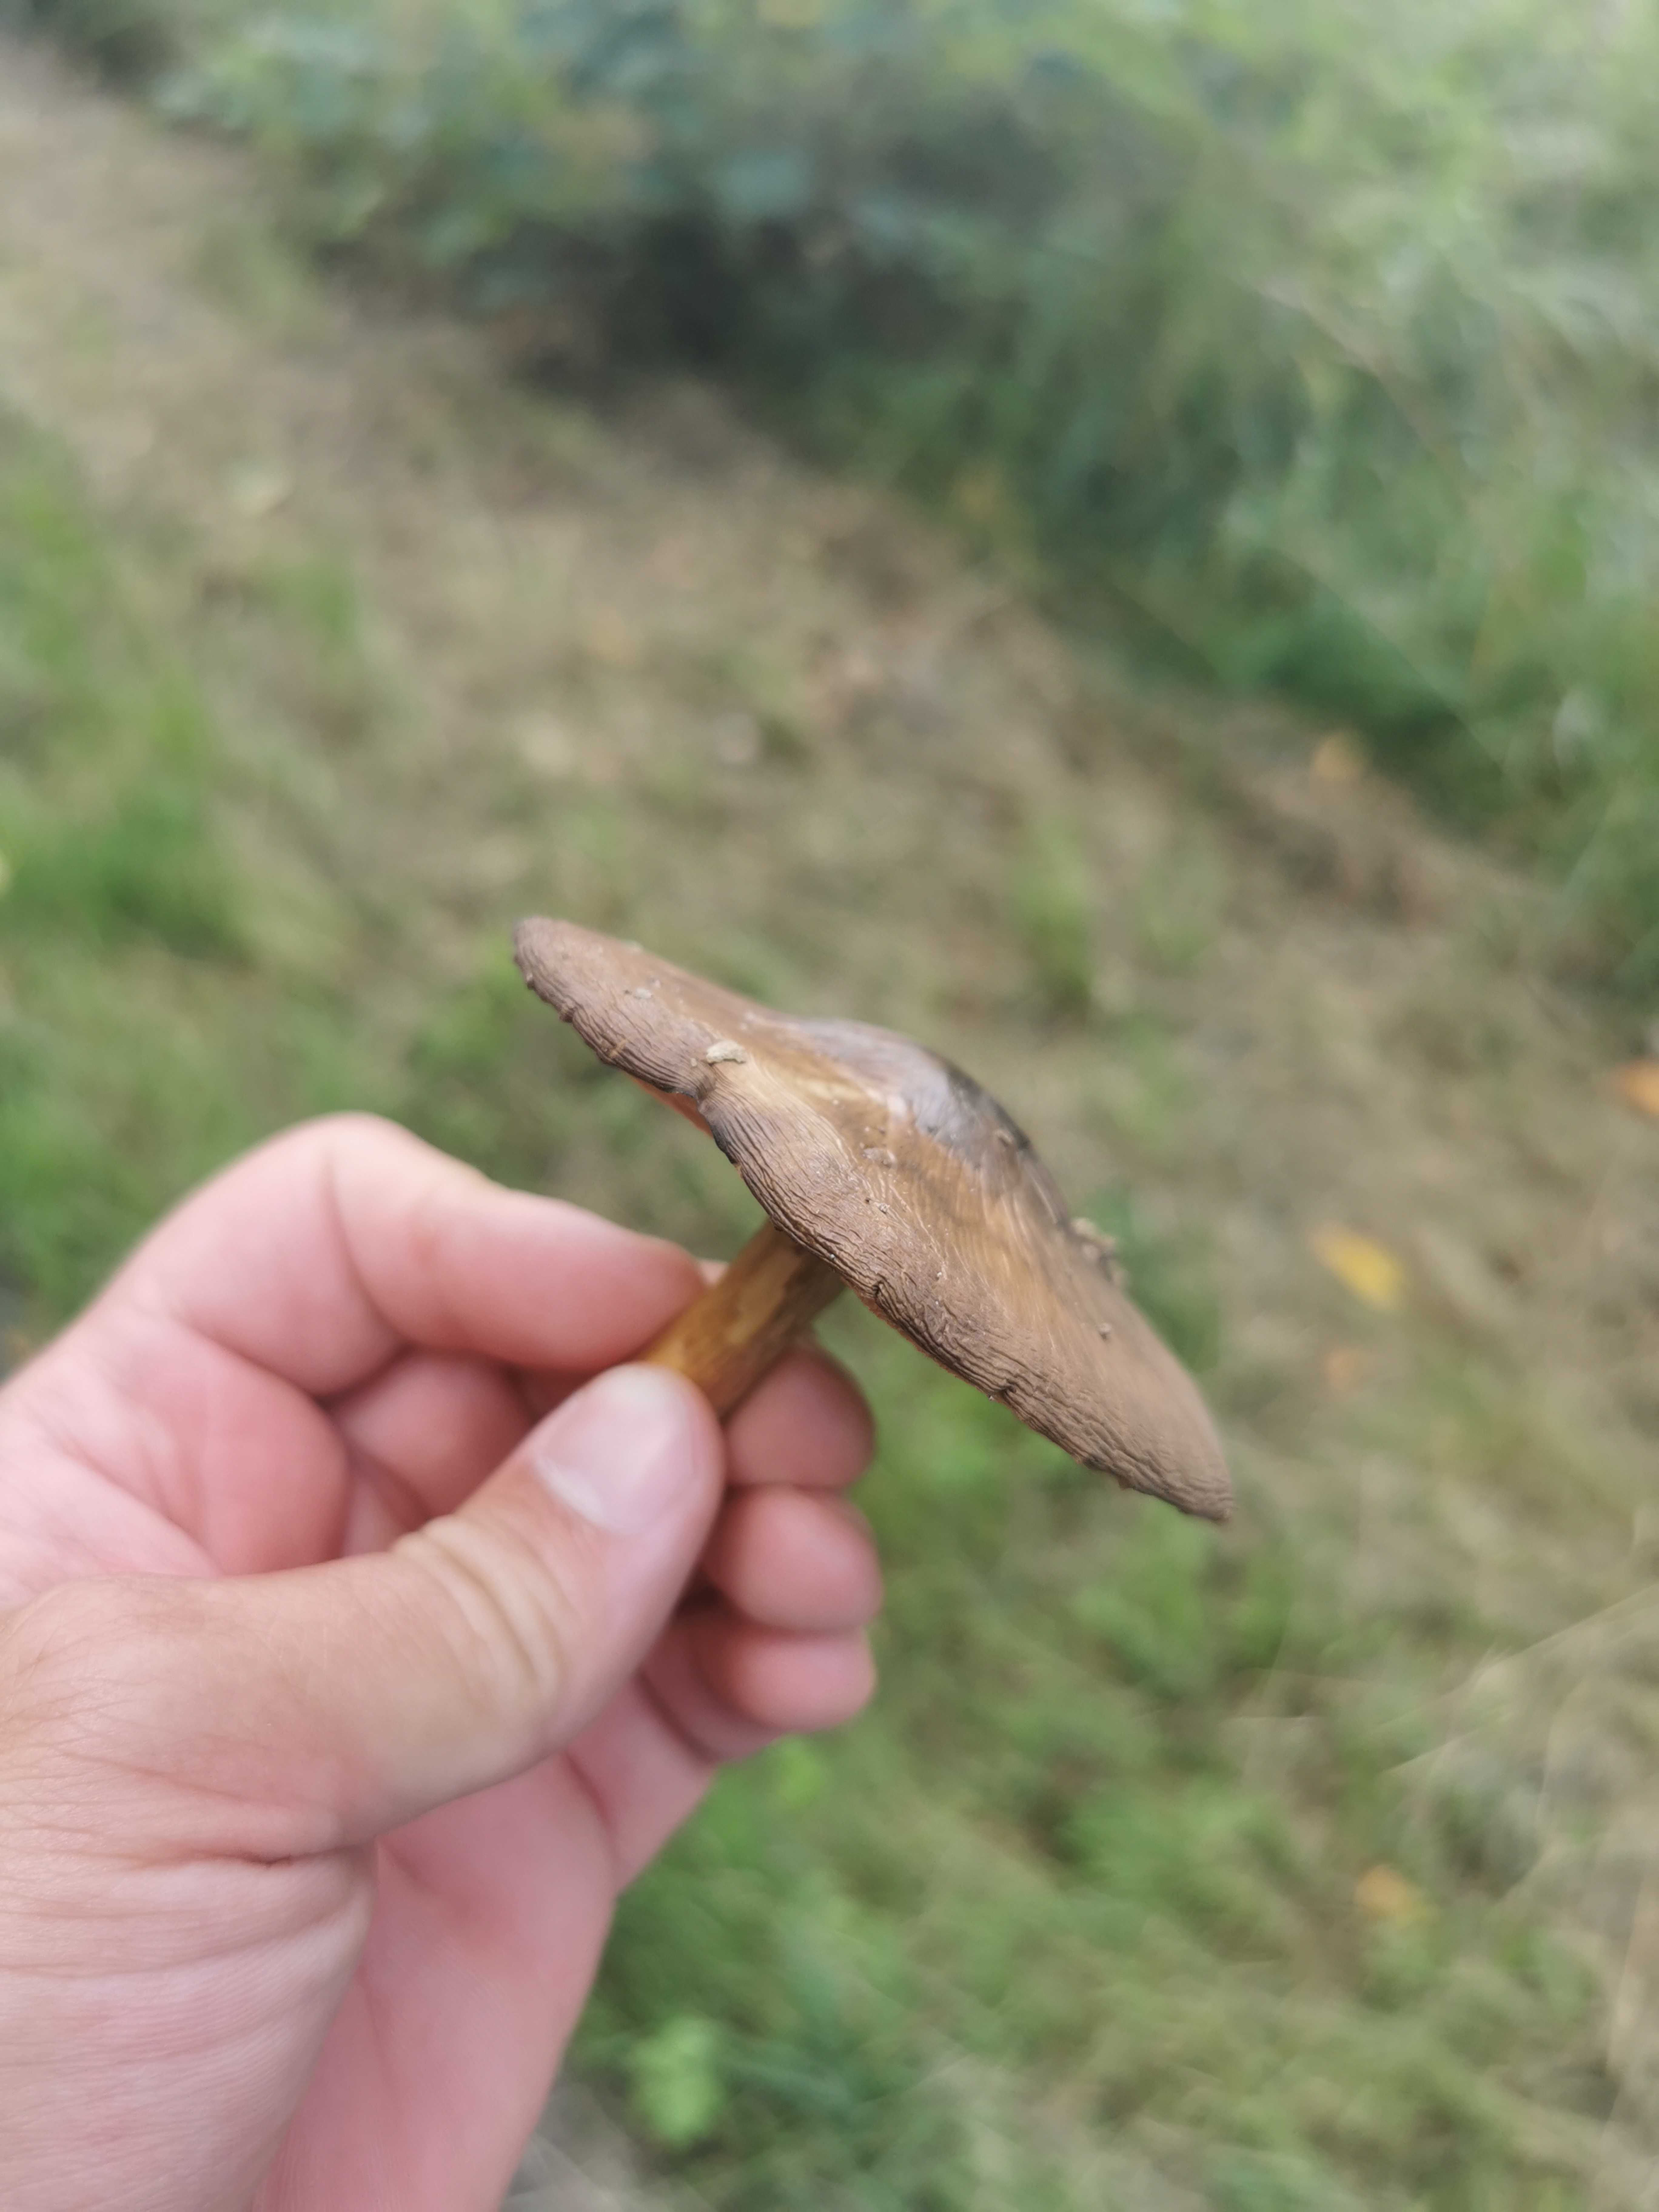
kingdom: Fungi
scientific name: Fungi
